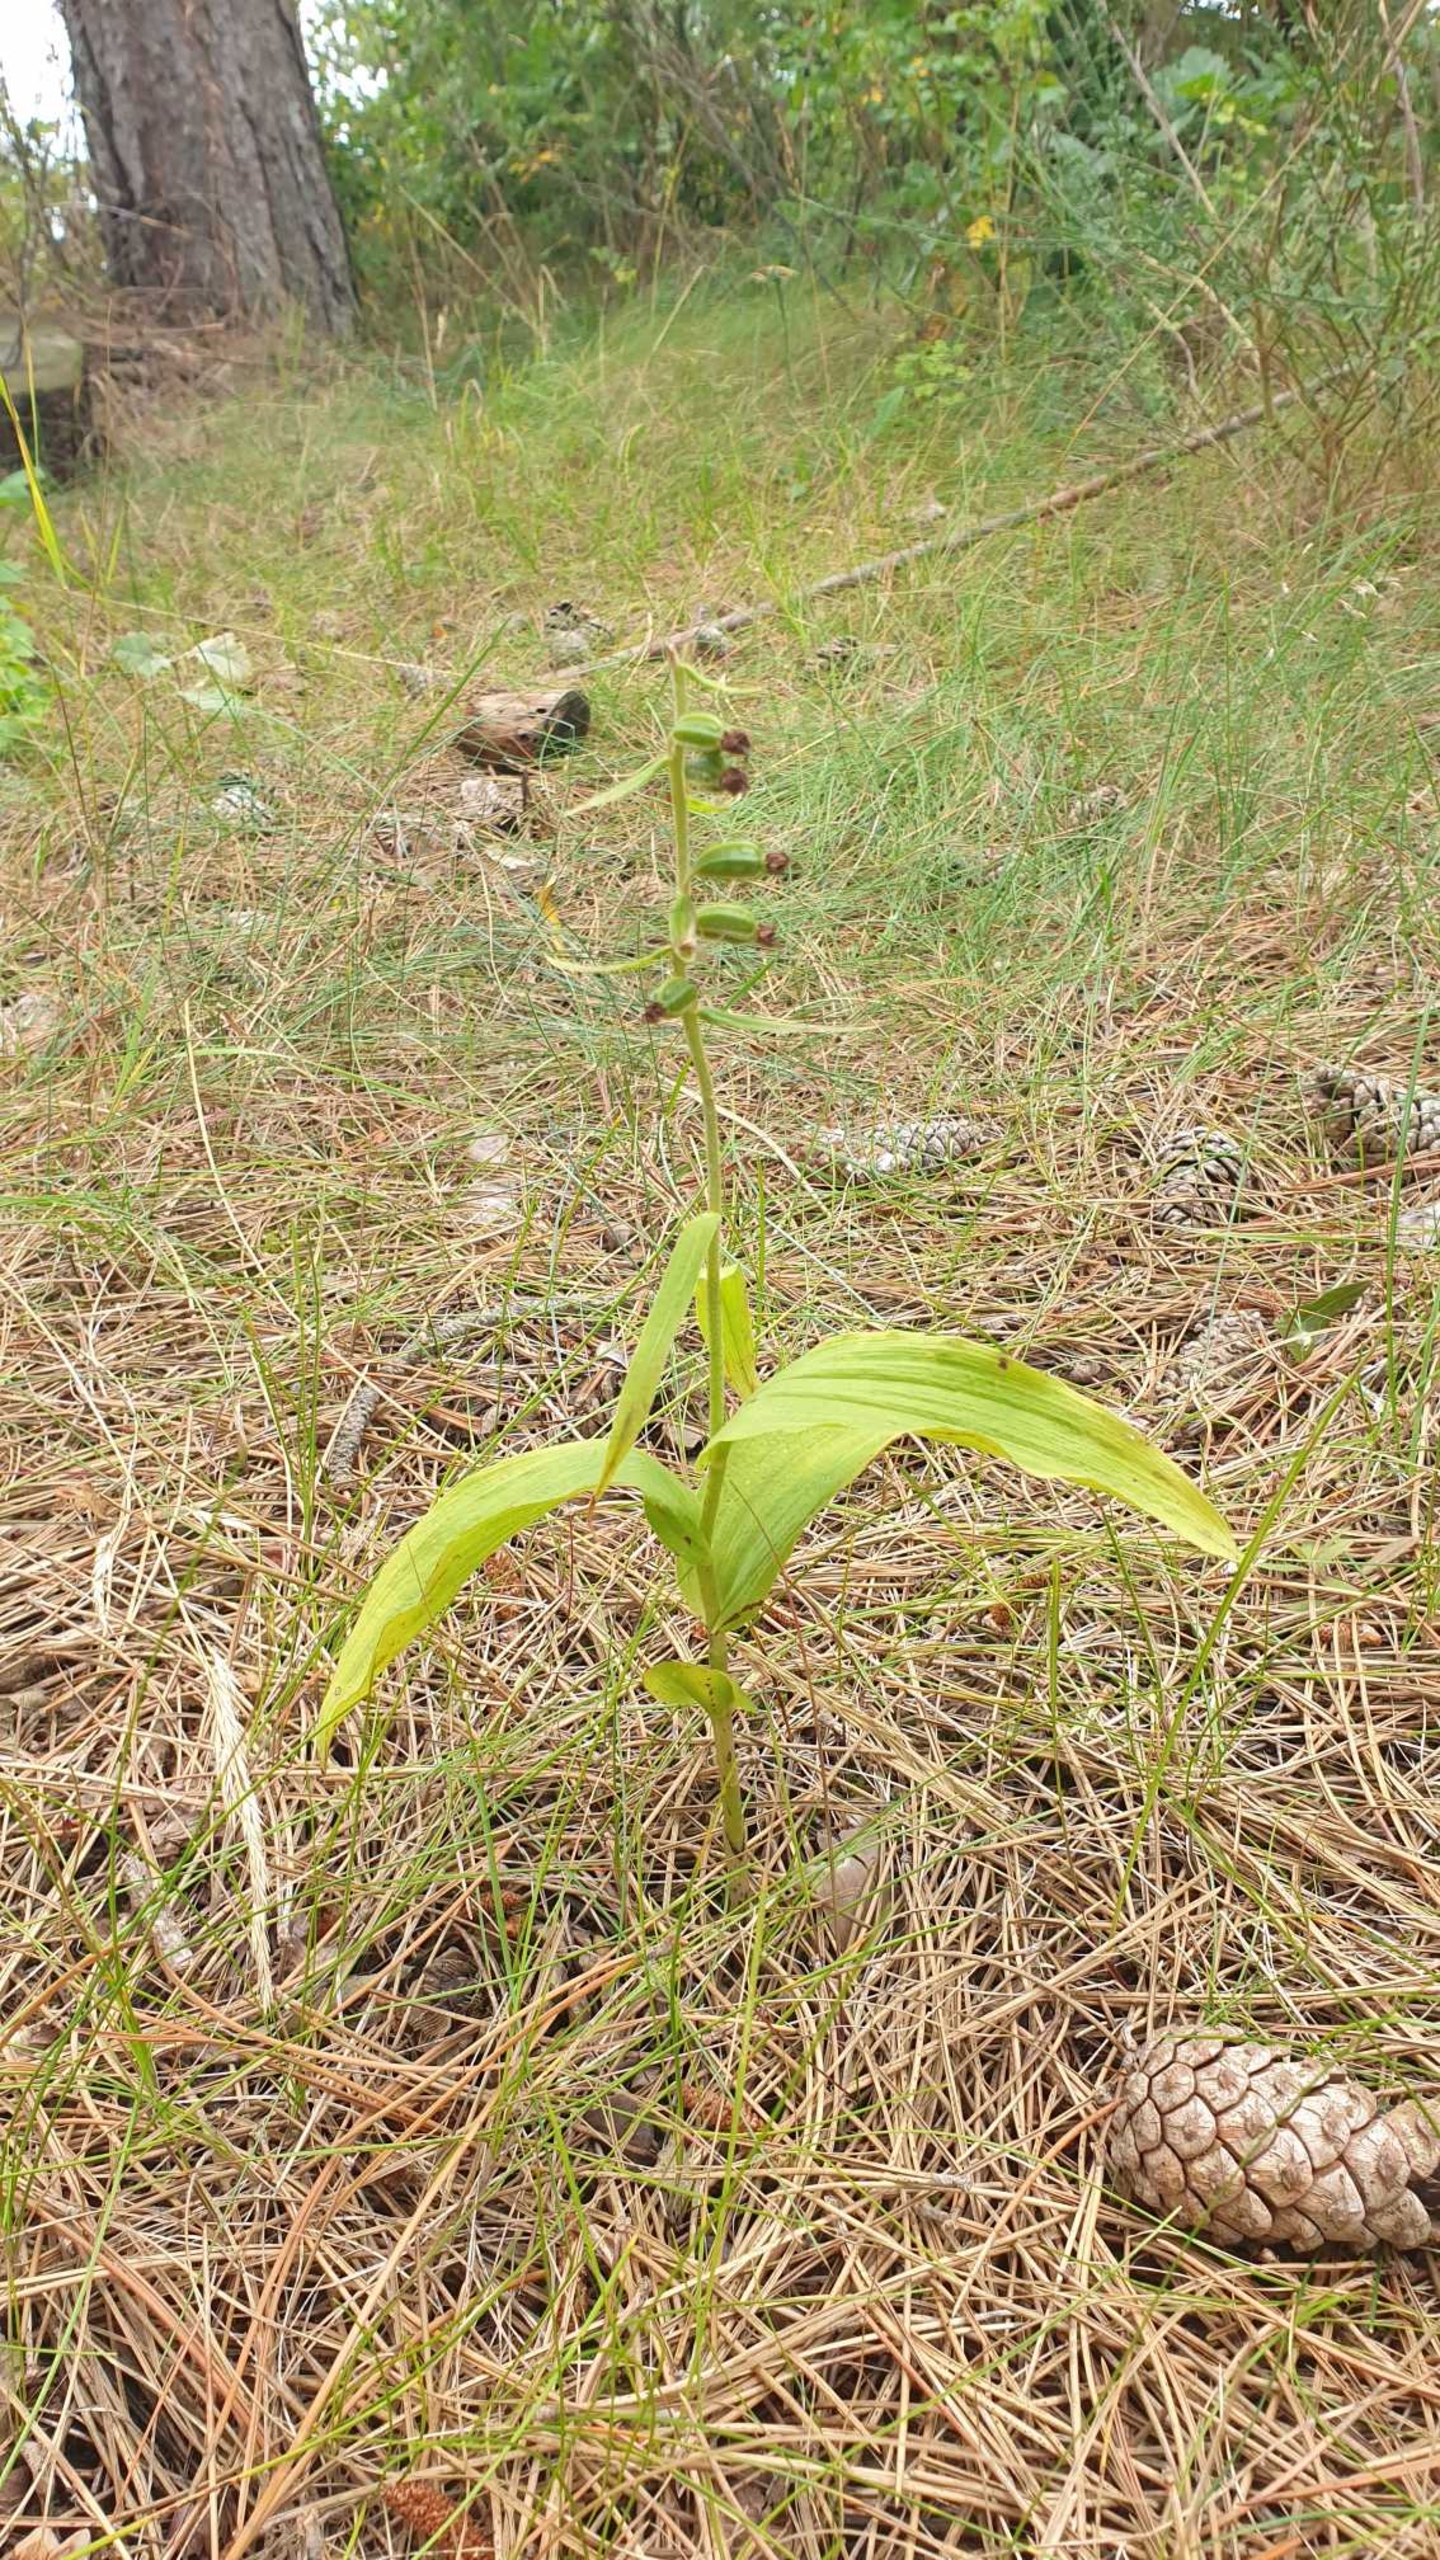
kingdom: Plantae
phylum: Tracheophyta
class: Liliopsida
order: Asparagales
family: Orchidaceae
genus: Epipactis
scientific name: Epipactis helleborine
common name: Skov-hullæbe
